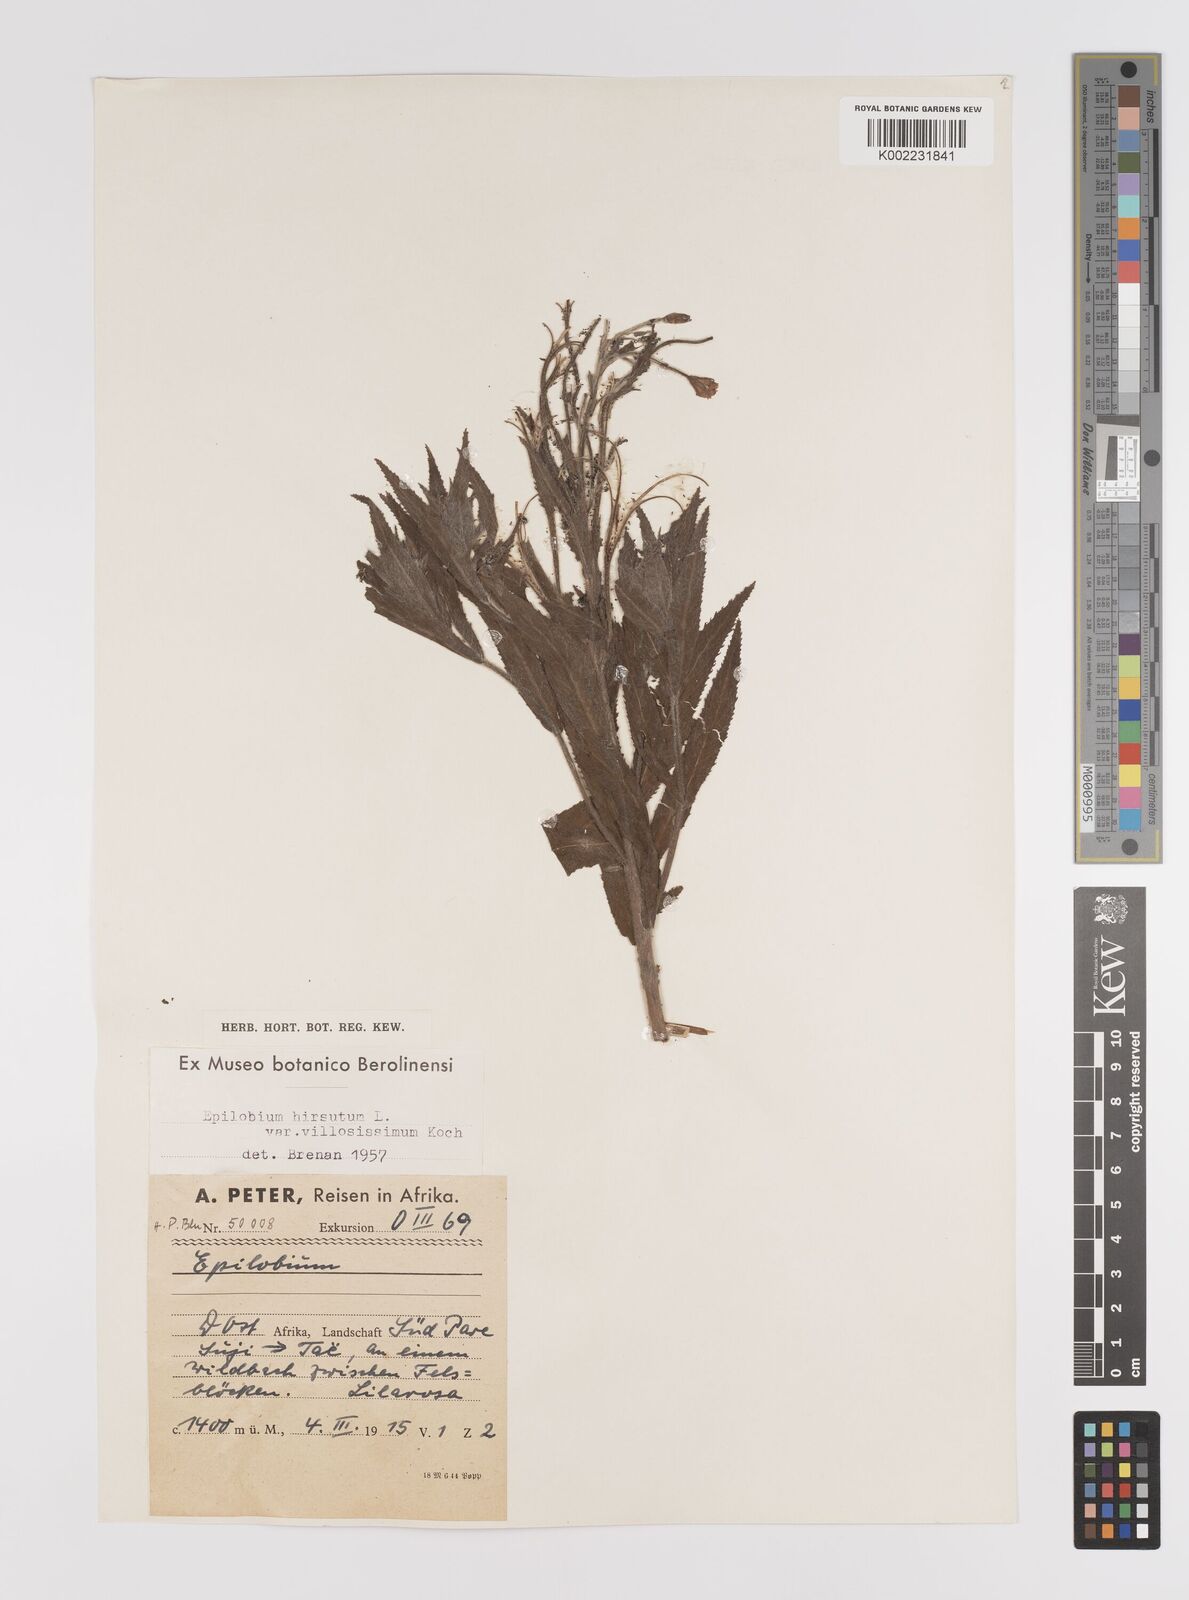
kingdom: Plantae
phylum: Tracheophyta
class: Magnoliopsida
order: Myrtales
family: Onagraceae
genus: Epilobium
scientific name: Epilobium hirsutum
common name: Great willowherb
